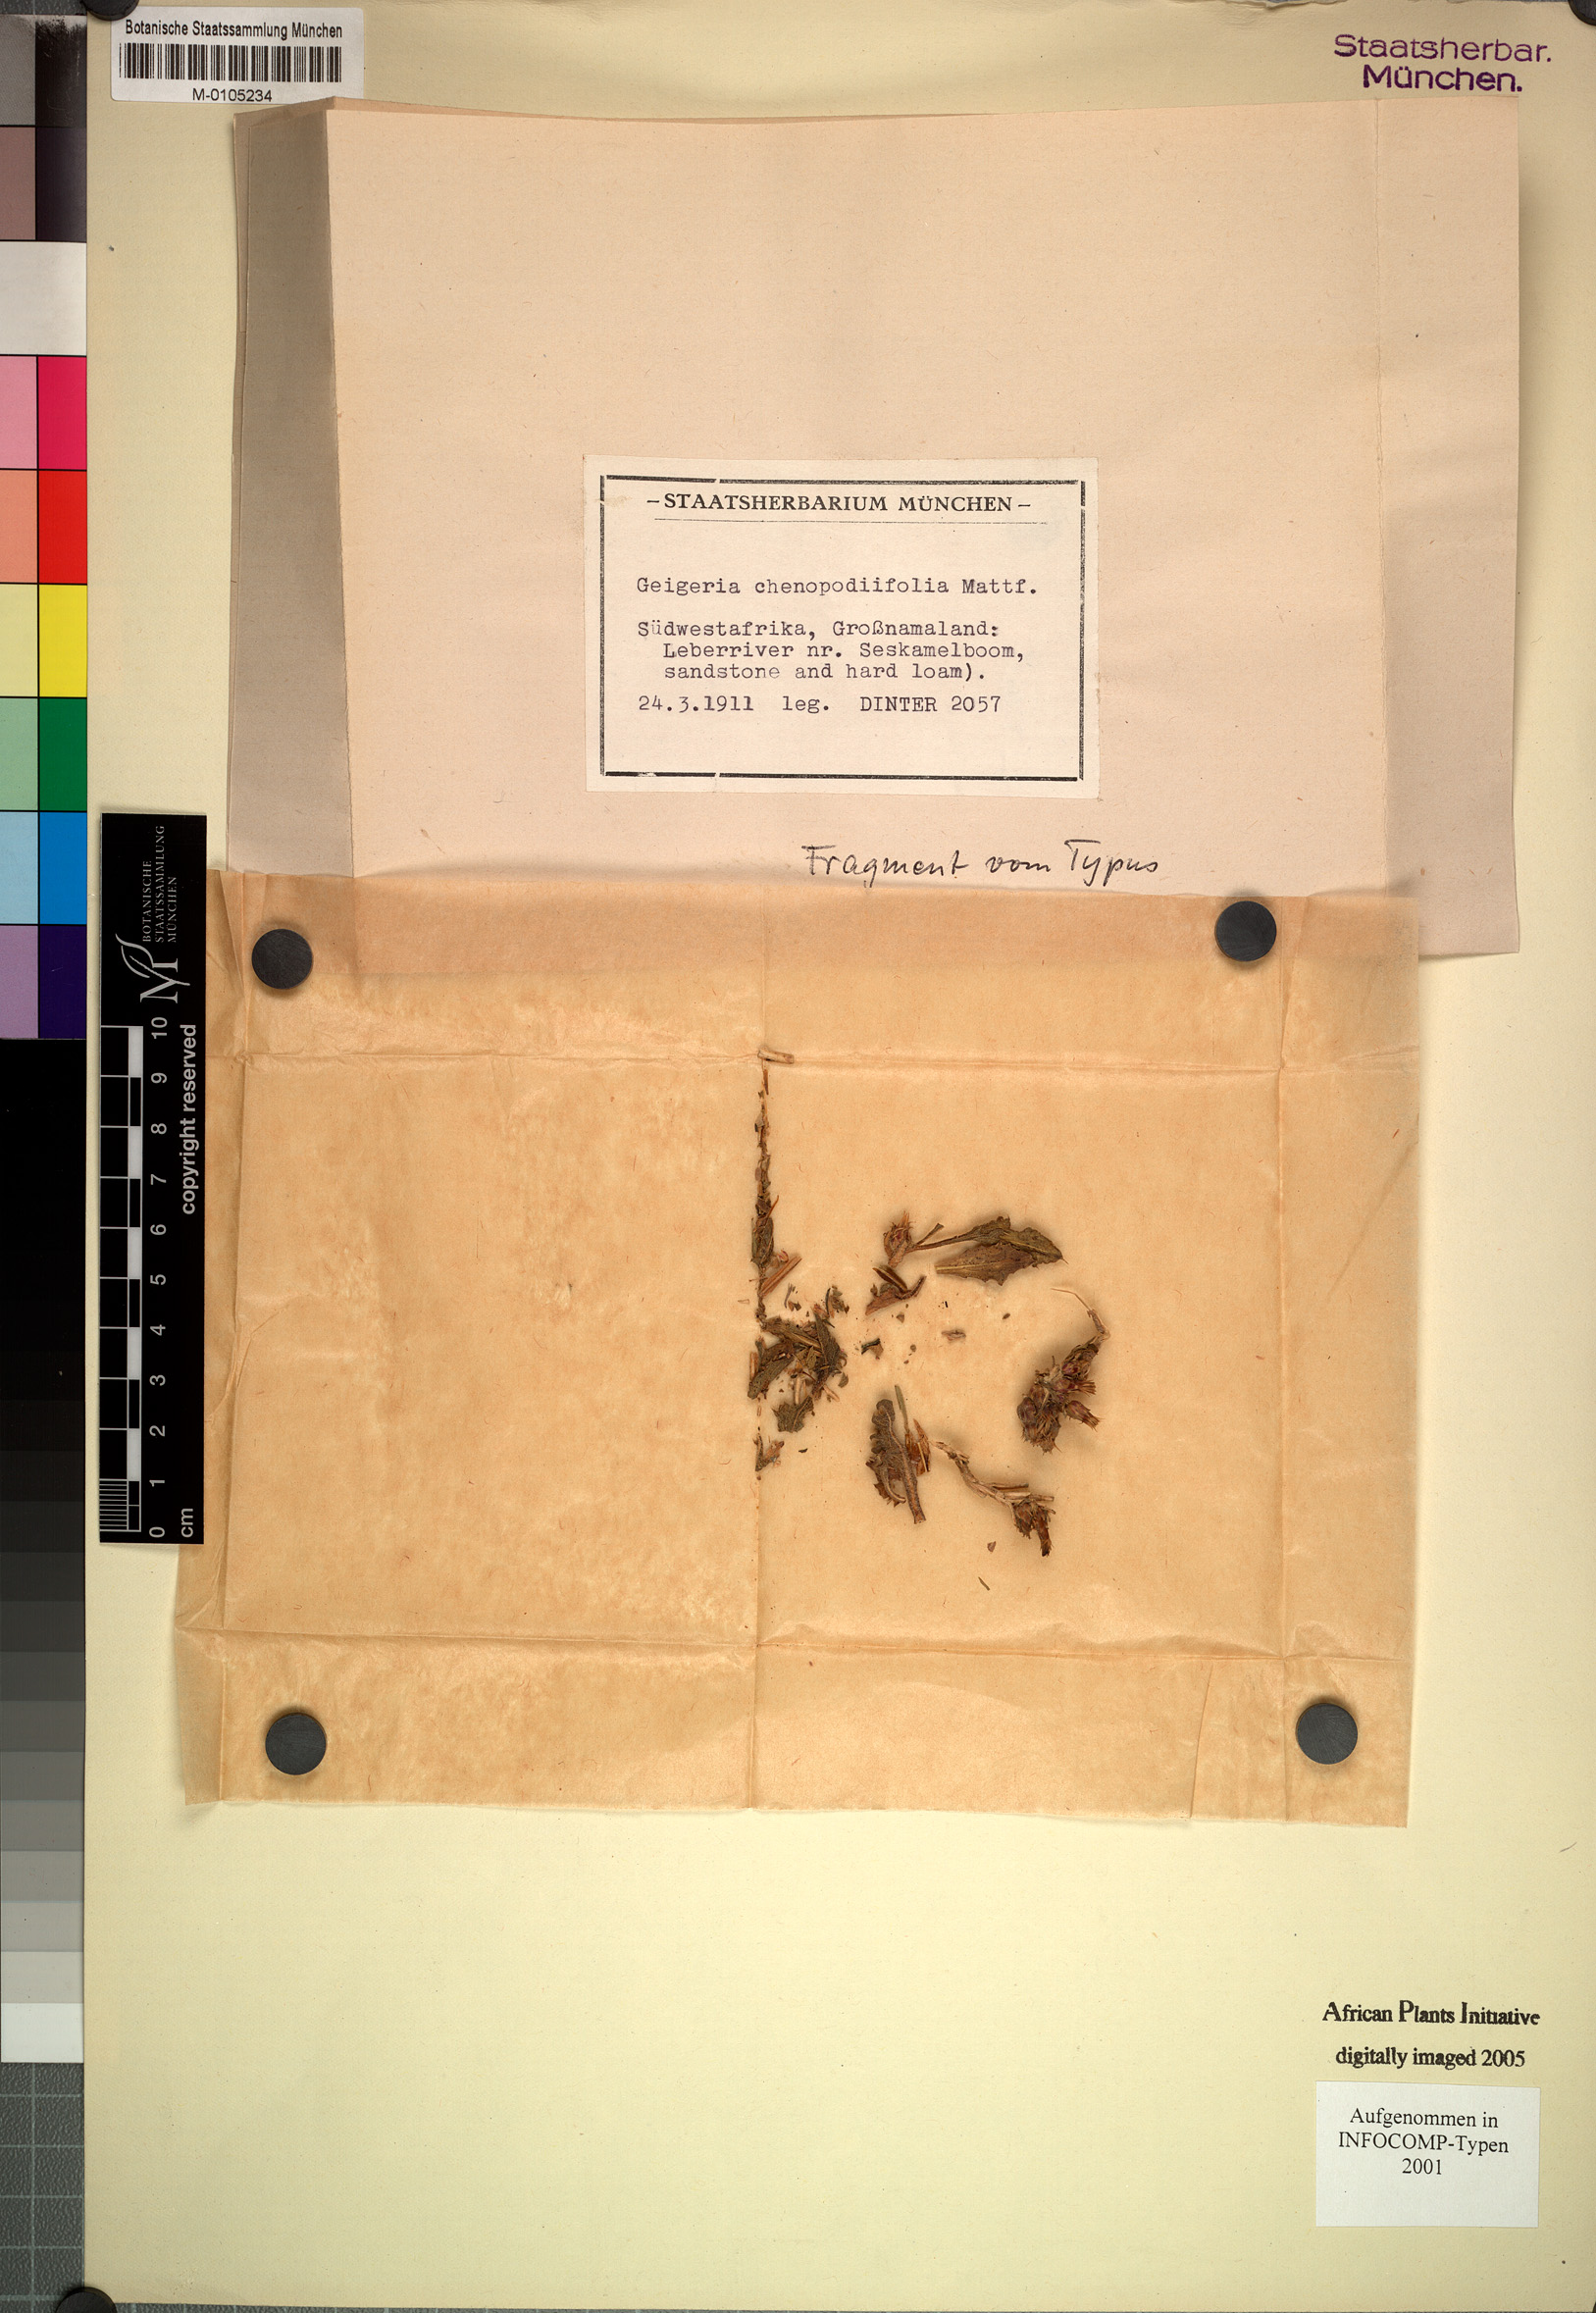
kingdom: Plantae
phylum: Tracheophyta
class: Magnoliopsida
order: Asterales
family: Asteraceae
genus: Geigeria
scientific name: Geigeria pilifera
